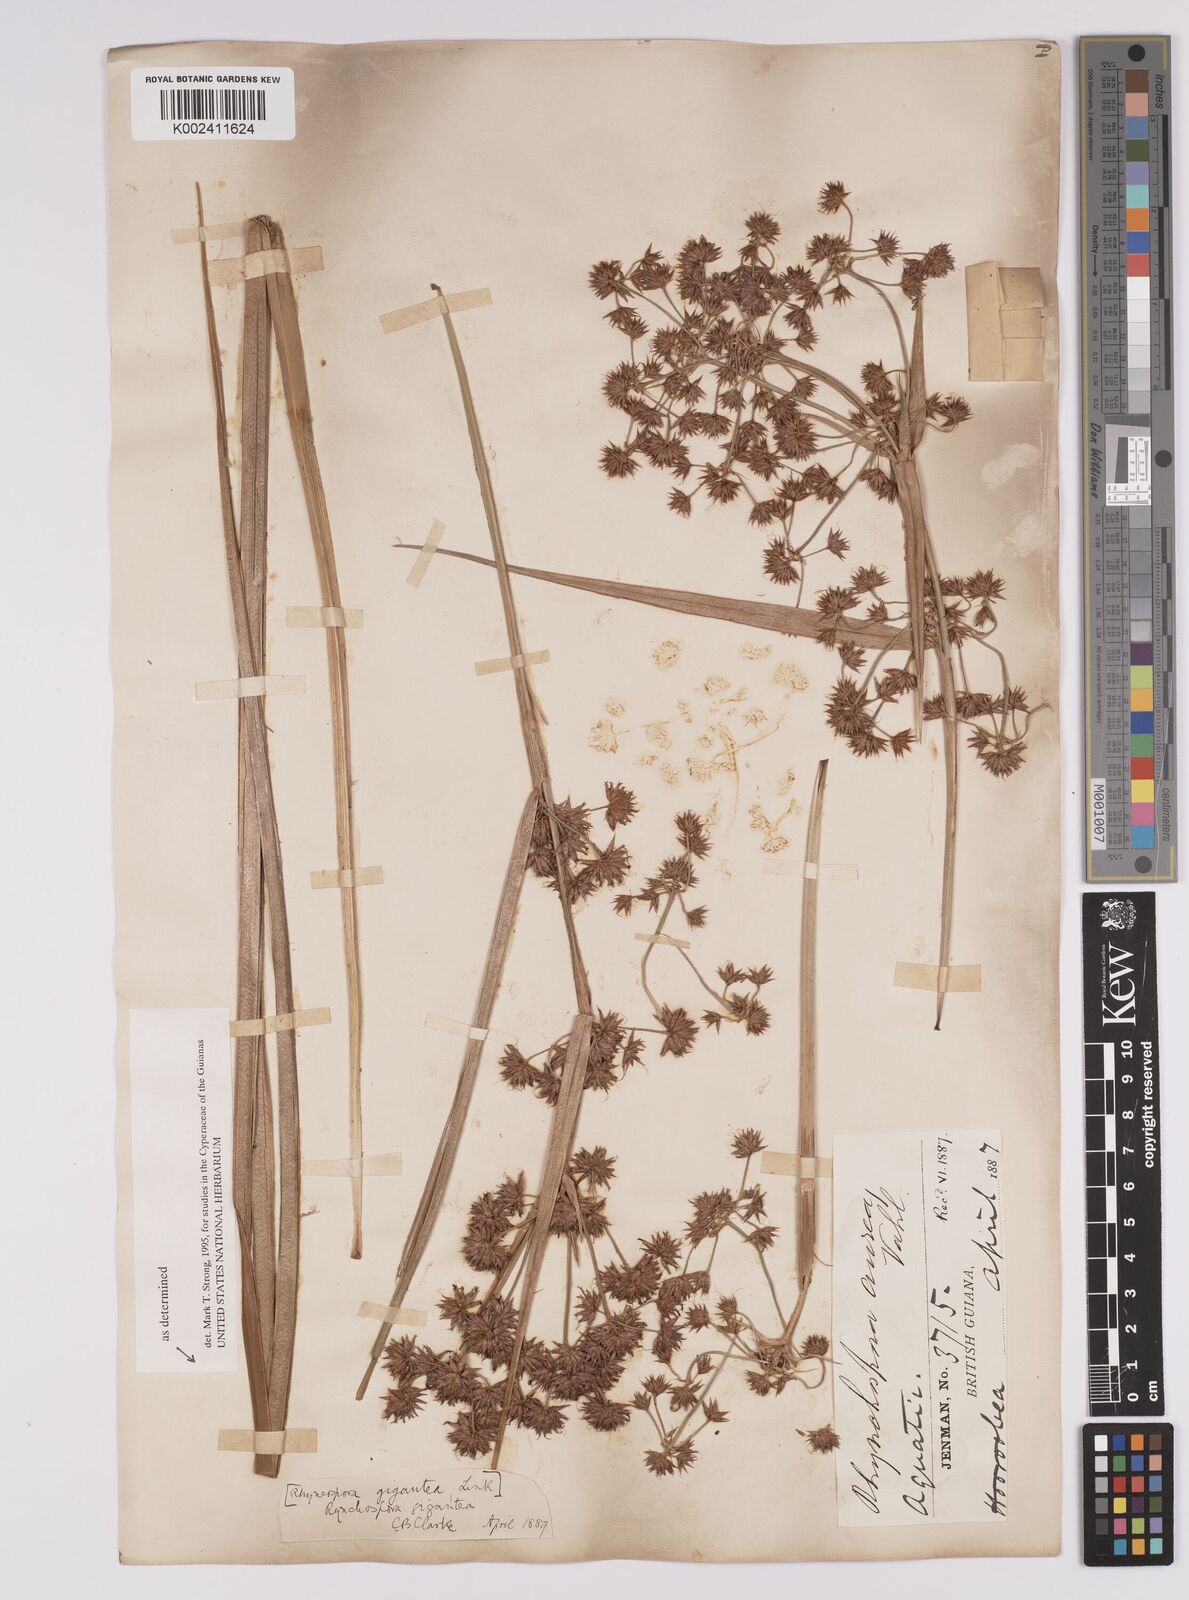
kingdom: Plantae
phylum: Tracheophyta
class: Liliopsida
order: Poales
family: Cyperaceae
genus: Rhynchospora
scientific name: Rhynchospora gigantea
